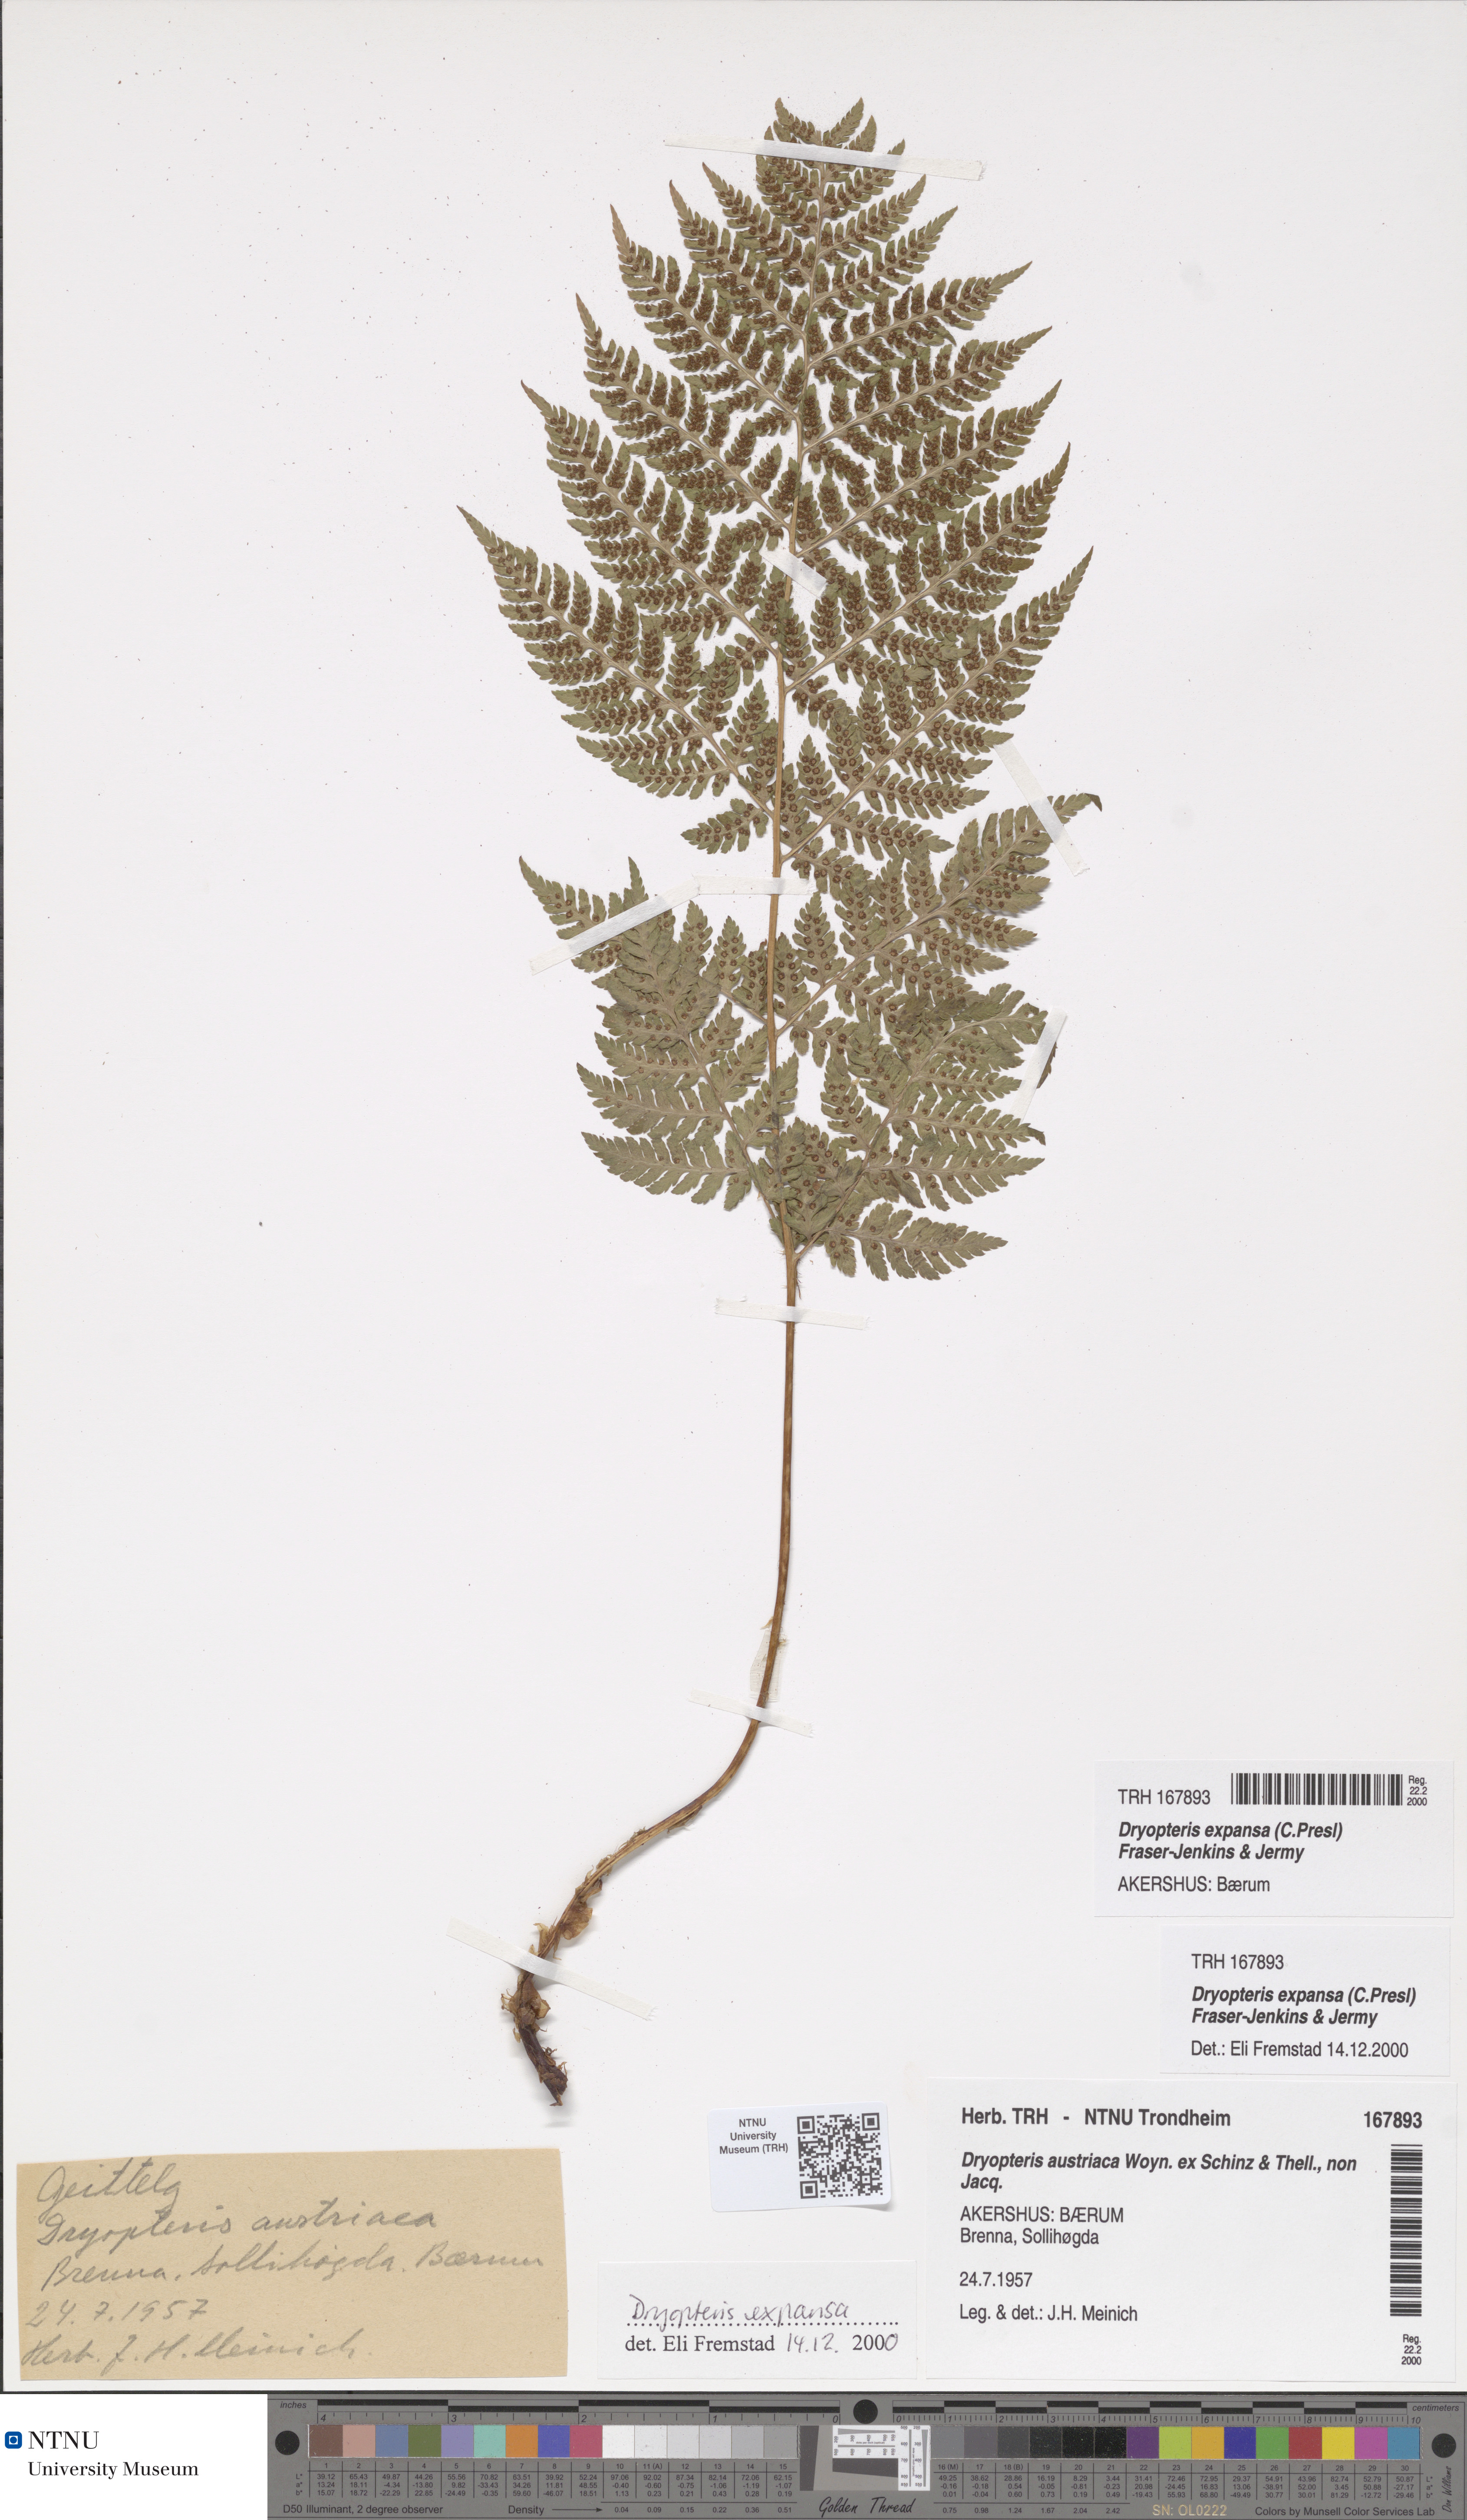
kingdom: Plantae
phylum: Tracheophyta
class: Polypodiopsida
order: Polypodiales
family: Dryopteridaceae
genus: Dryopteris
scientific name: Dryopteris expansa
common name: Northern buckler fern
